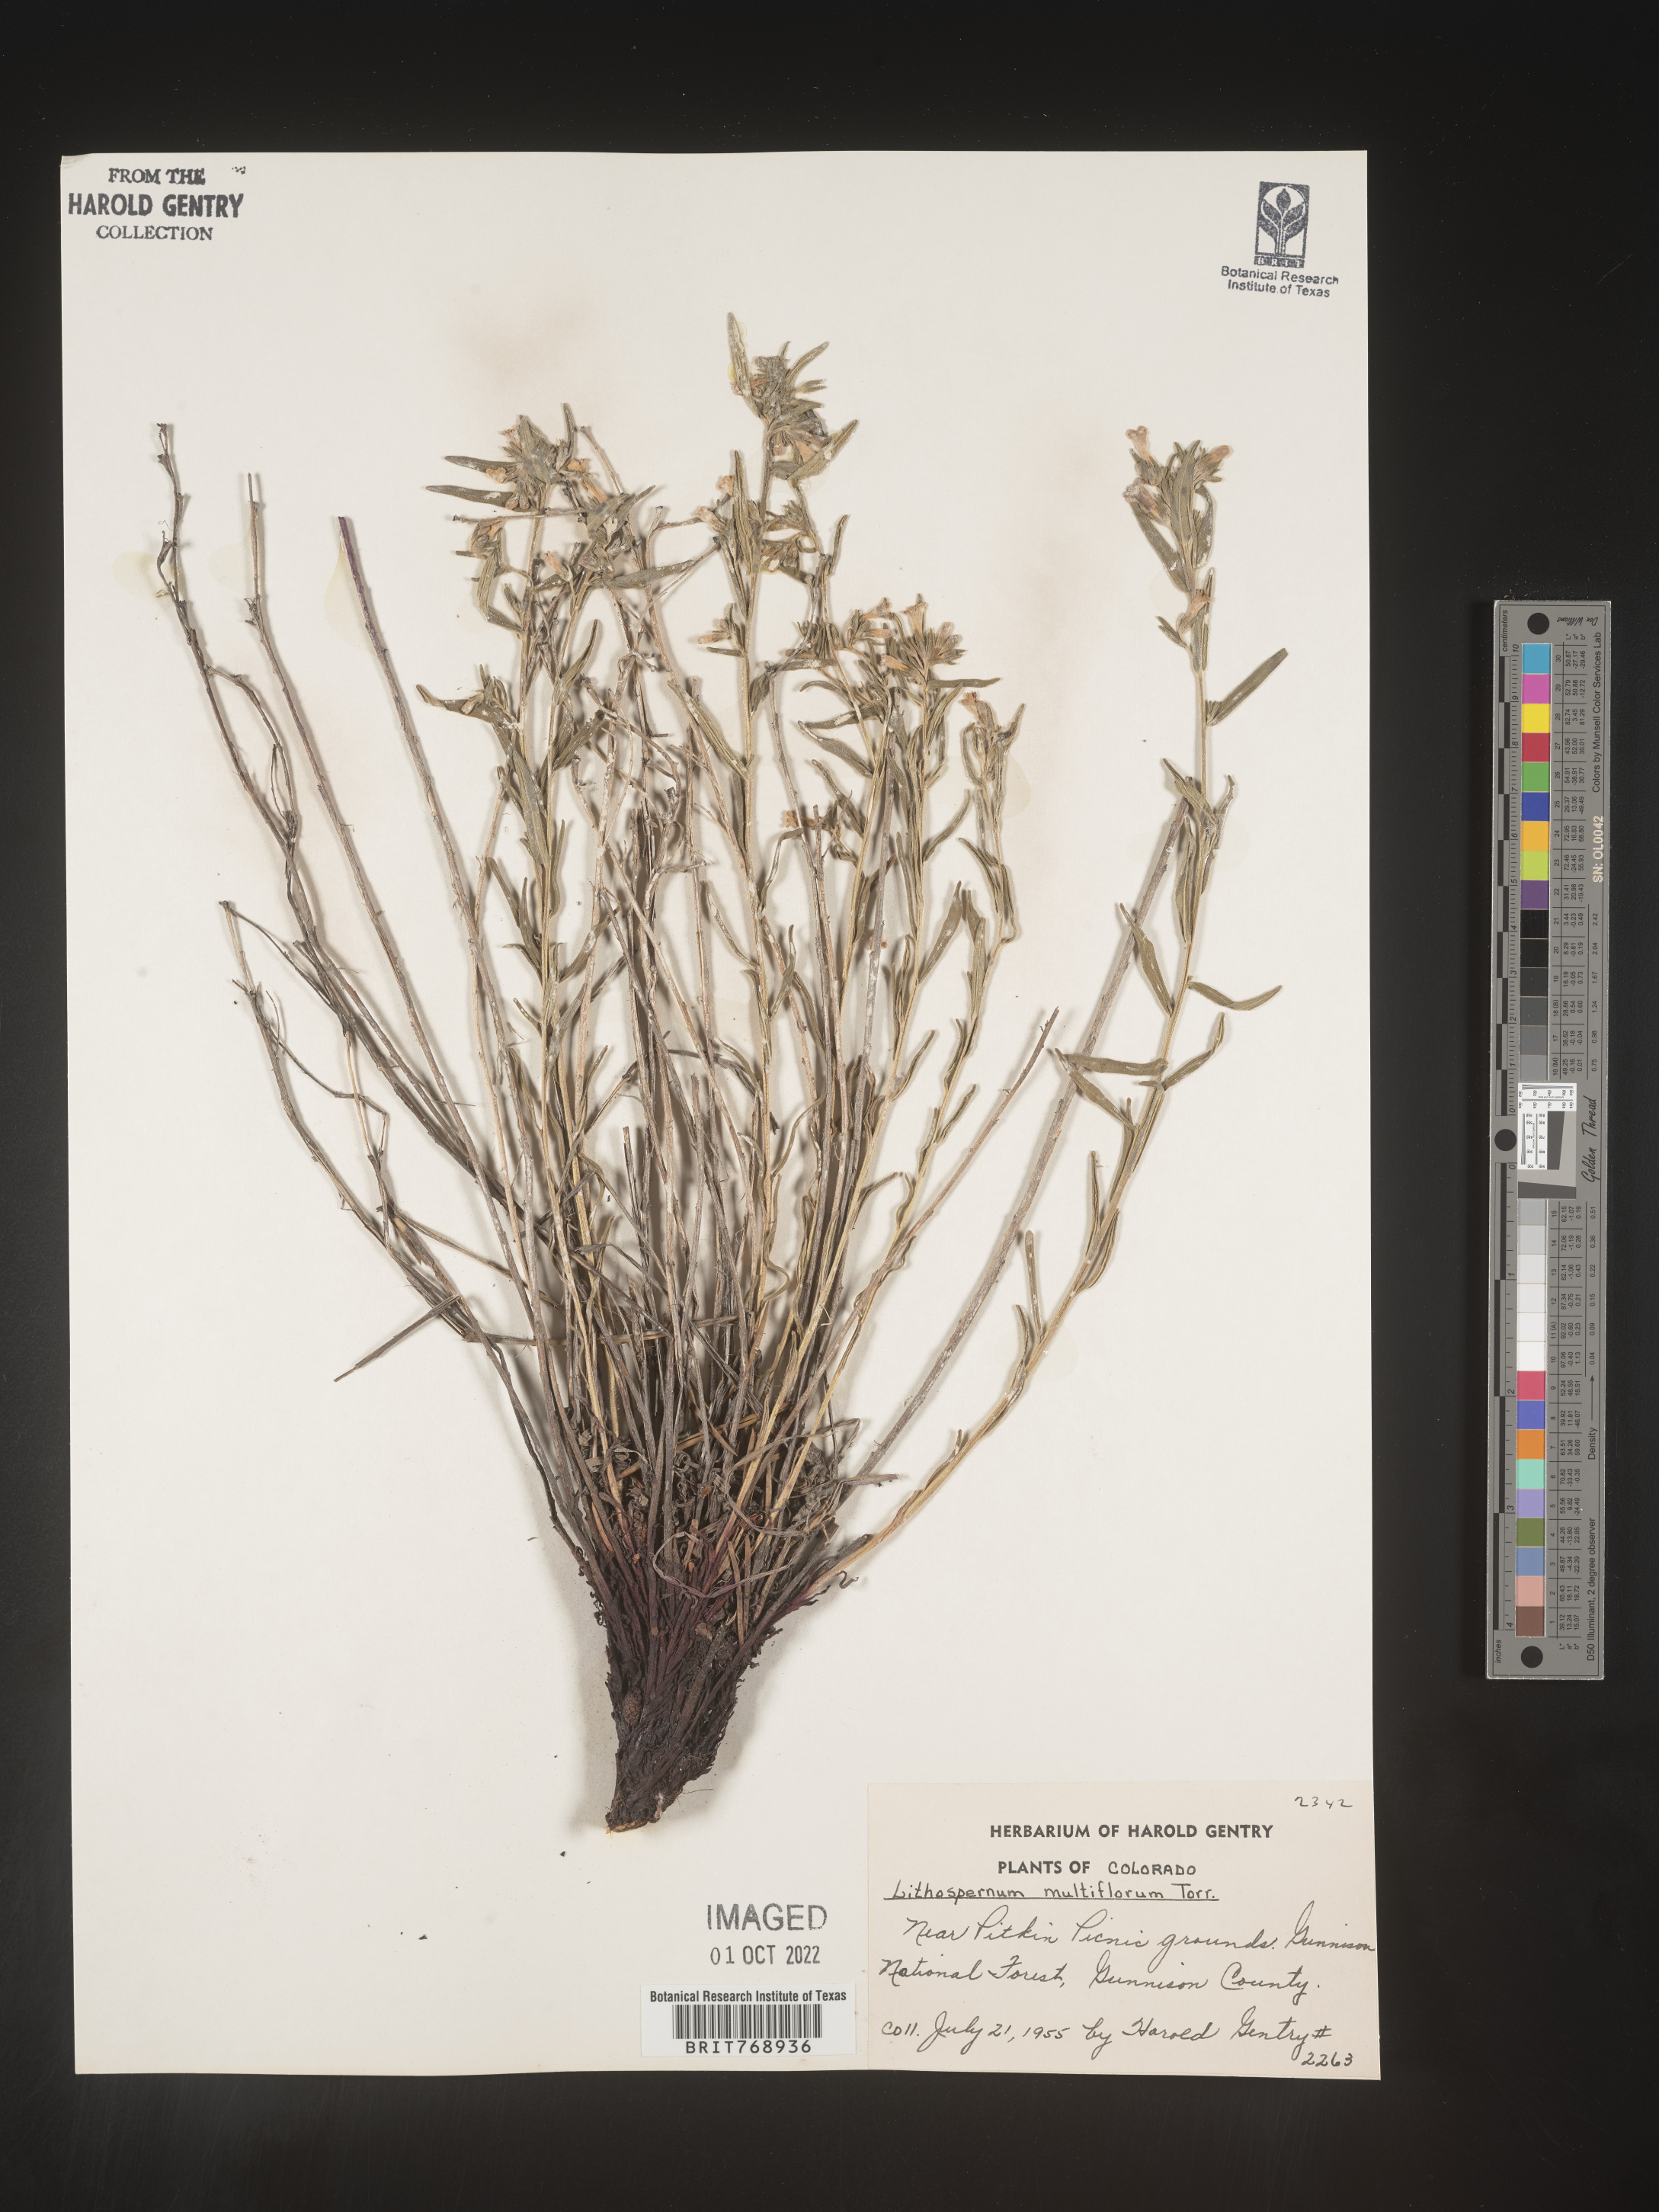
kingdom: Plantae
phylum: Tracheophyta
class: Magnoliopsida
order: Boraginales
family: Boraginaceae
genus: Lithospermum
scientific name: Lithospermum multiflorum
